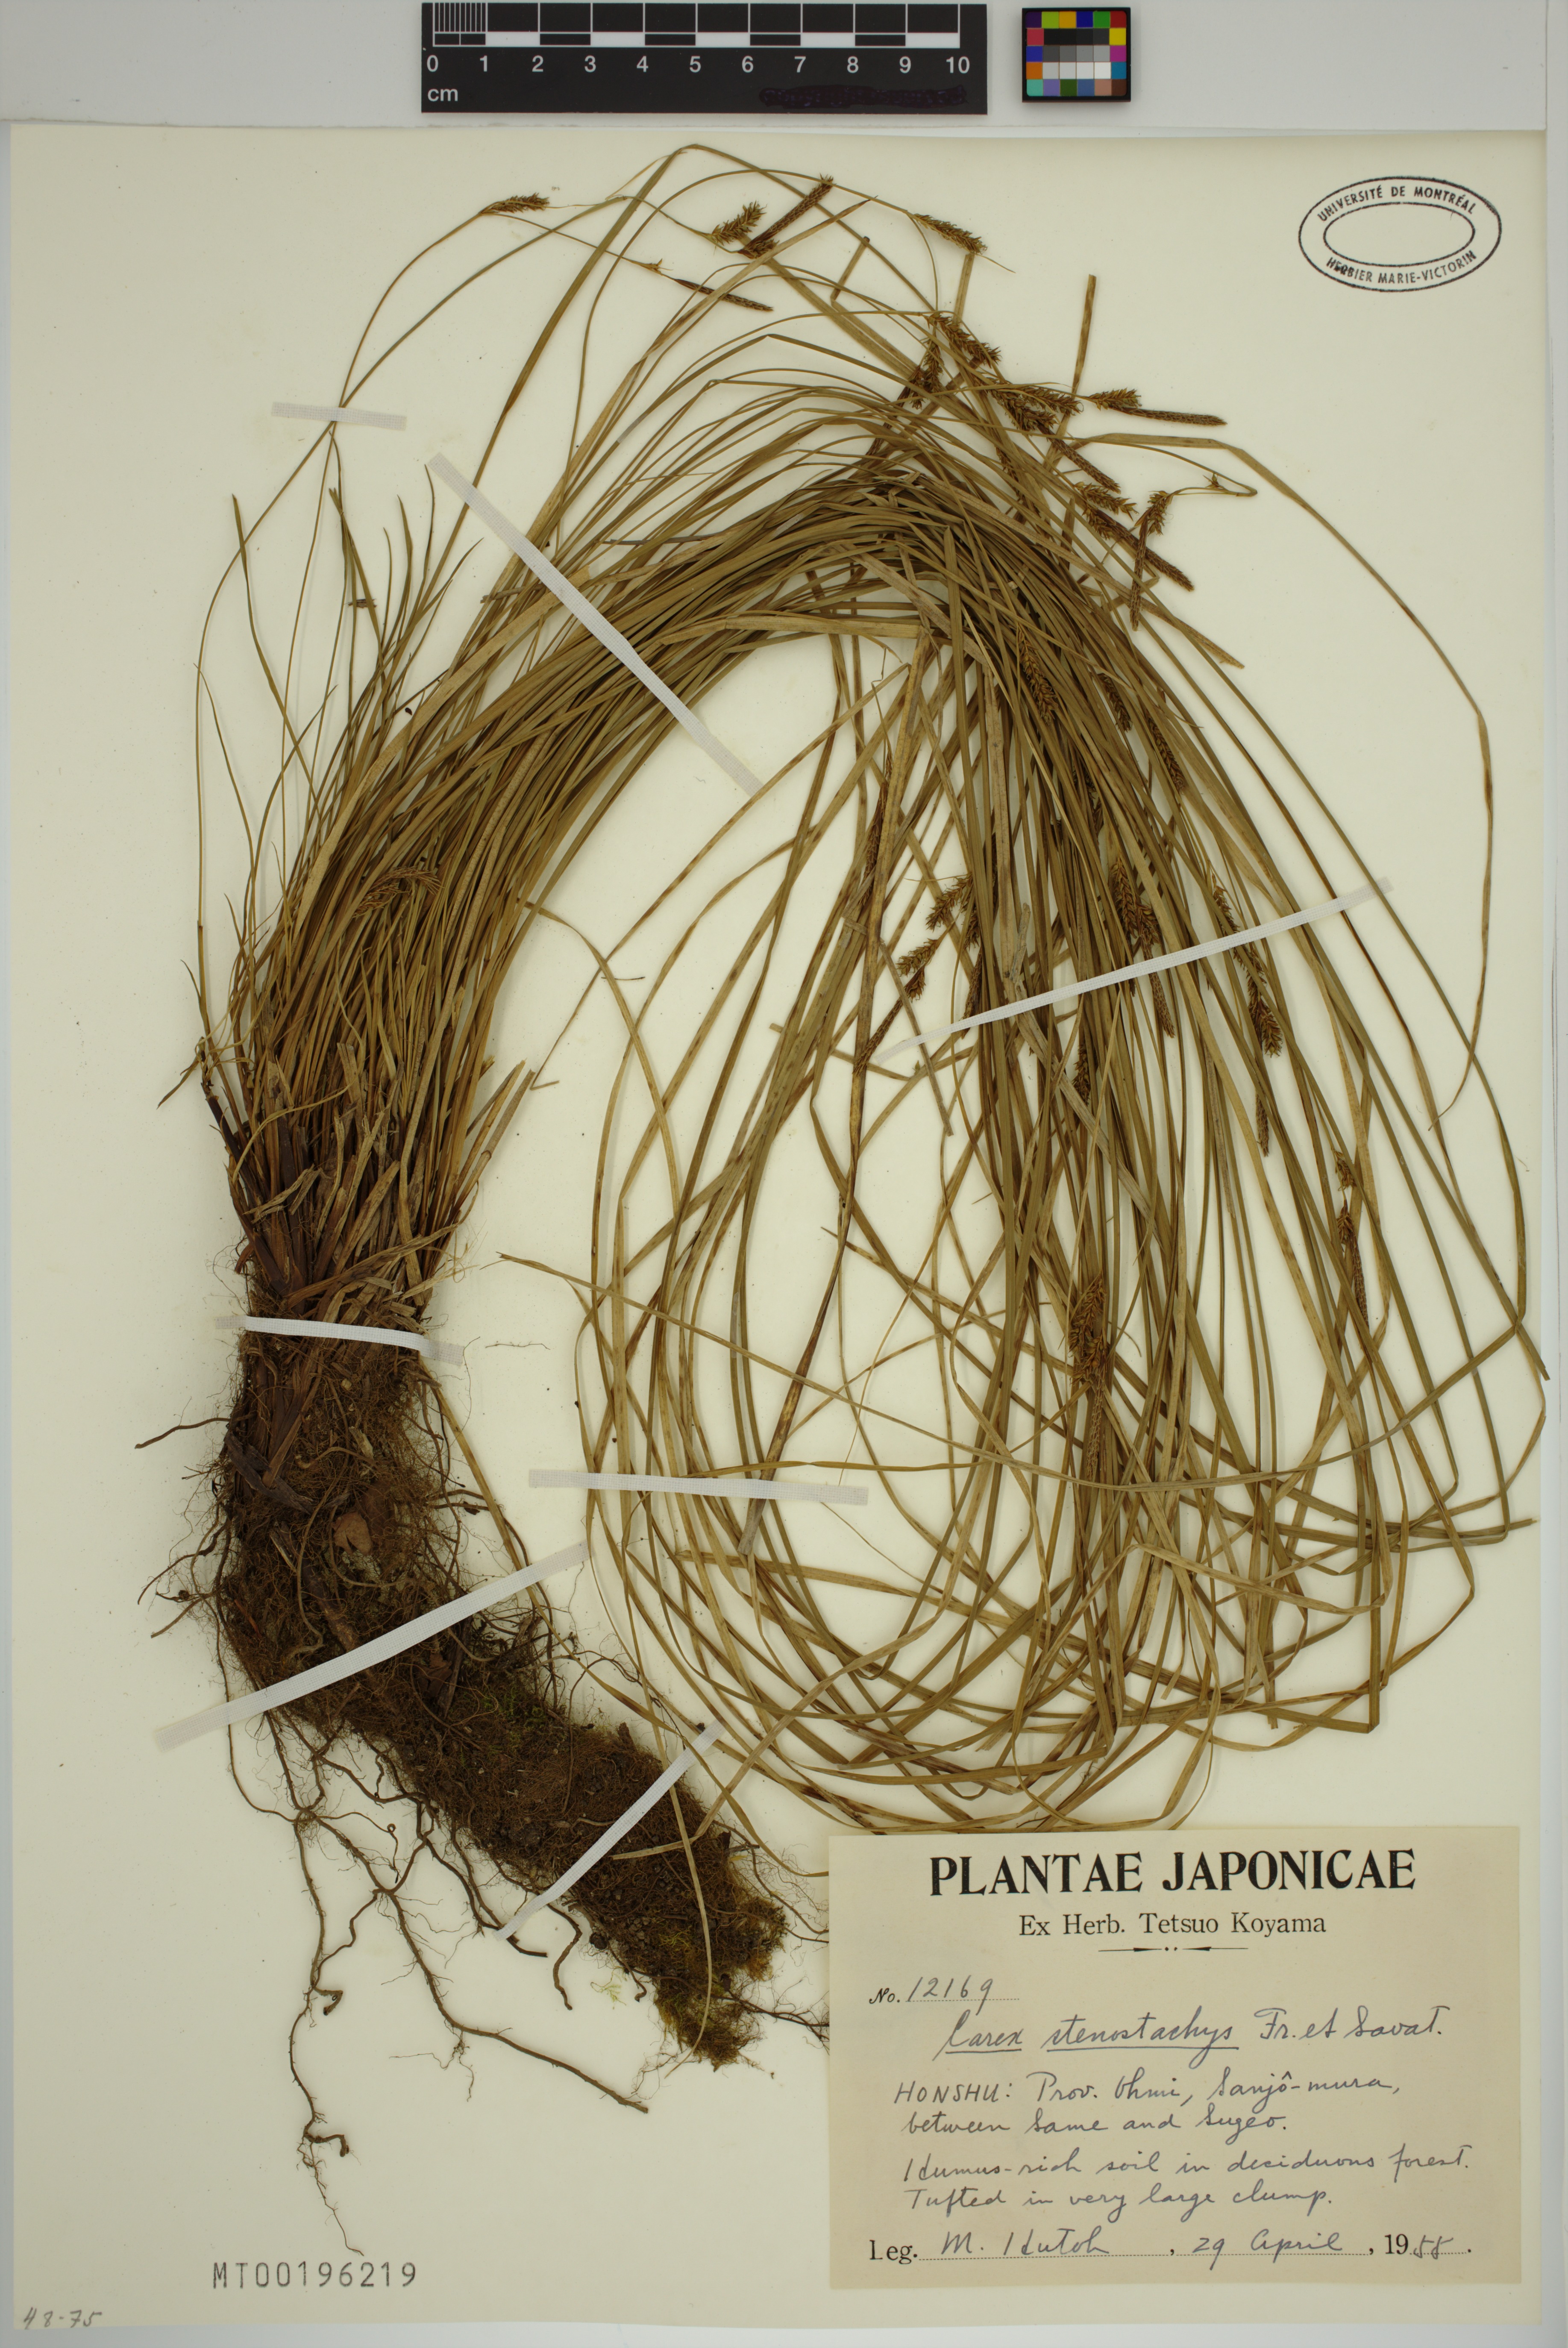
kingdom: Plantae
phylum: Tracheophyta
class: Liliopsida
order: Poales
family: Cyperaceae
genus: Carex
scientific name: Carex stenostachys
